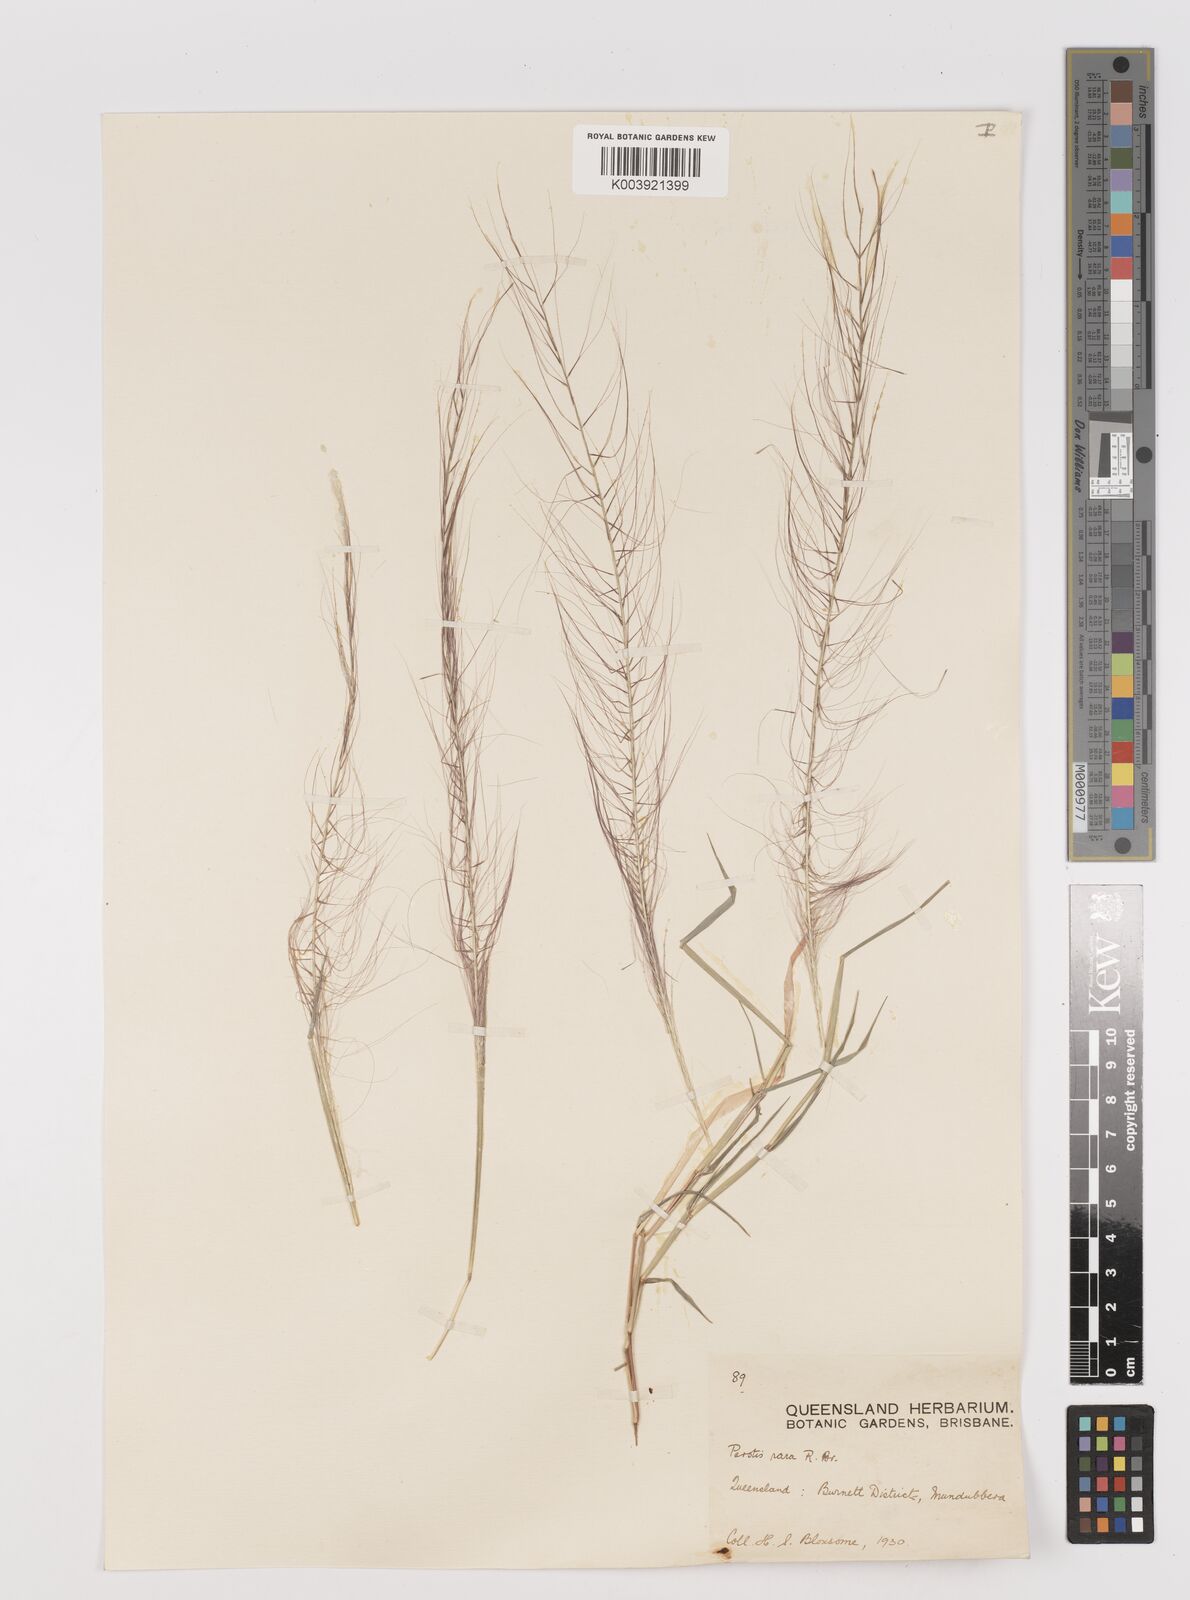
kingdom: Plantae
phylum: Tracheophyta
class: Liliopsida
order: Poales
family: Poaceae
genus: Perotis
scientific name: Perotis rara
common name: Comet grass
